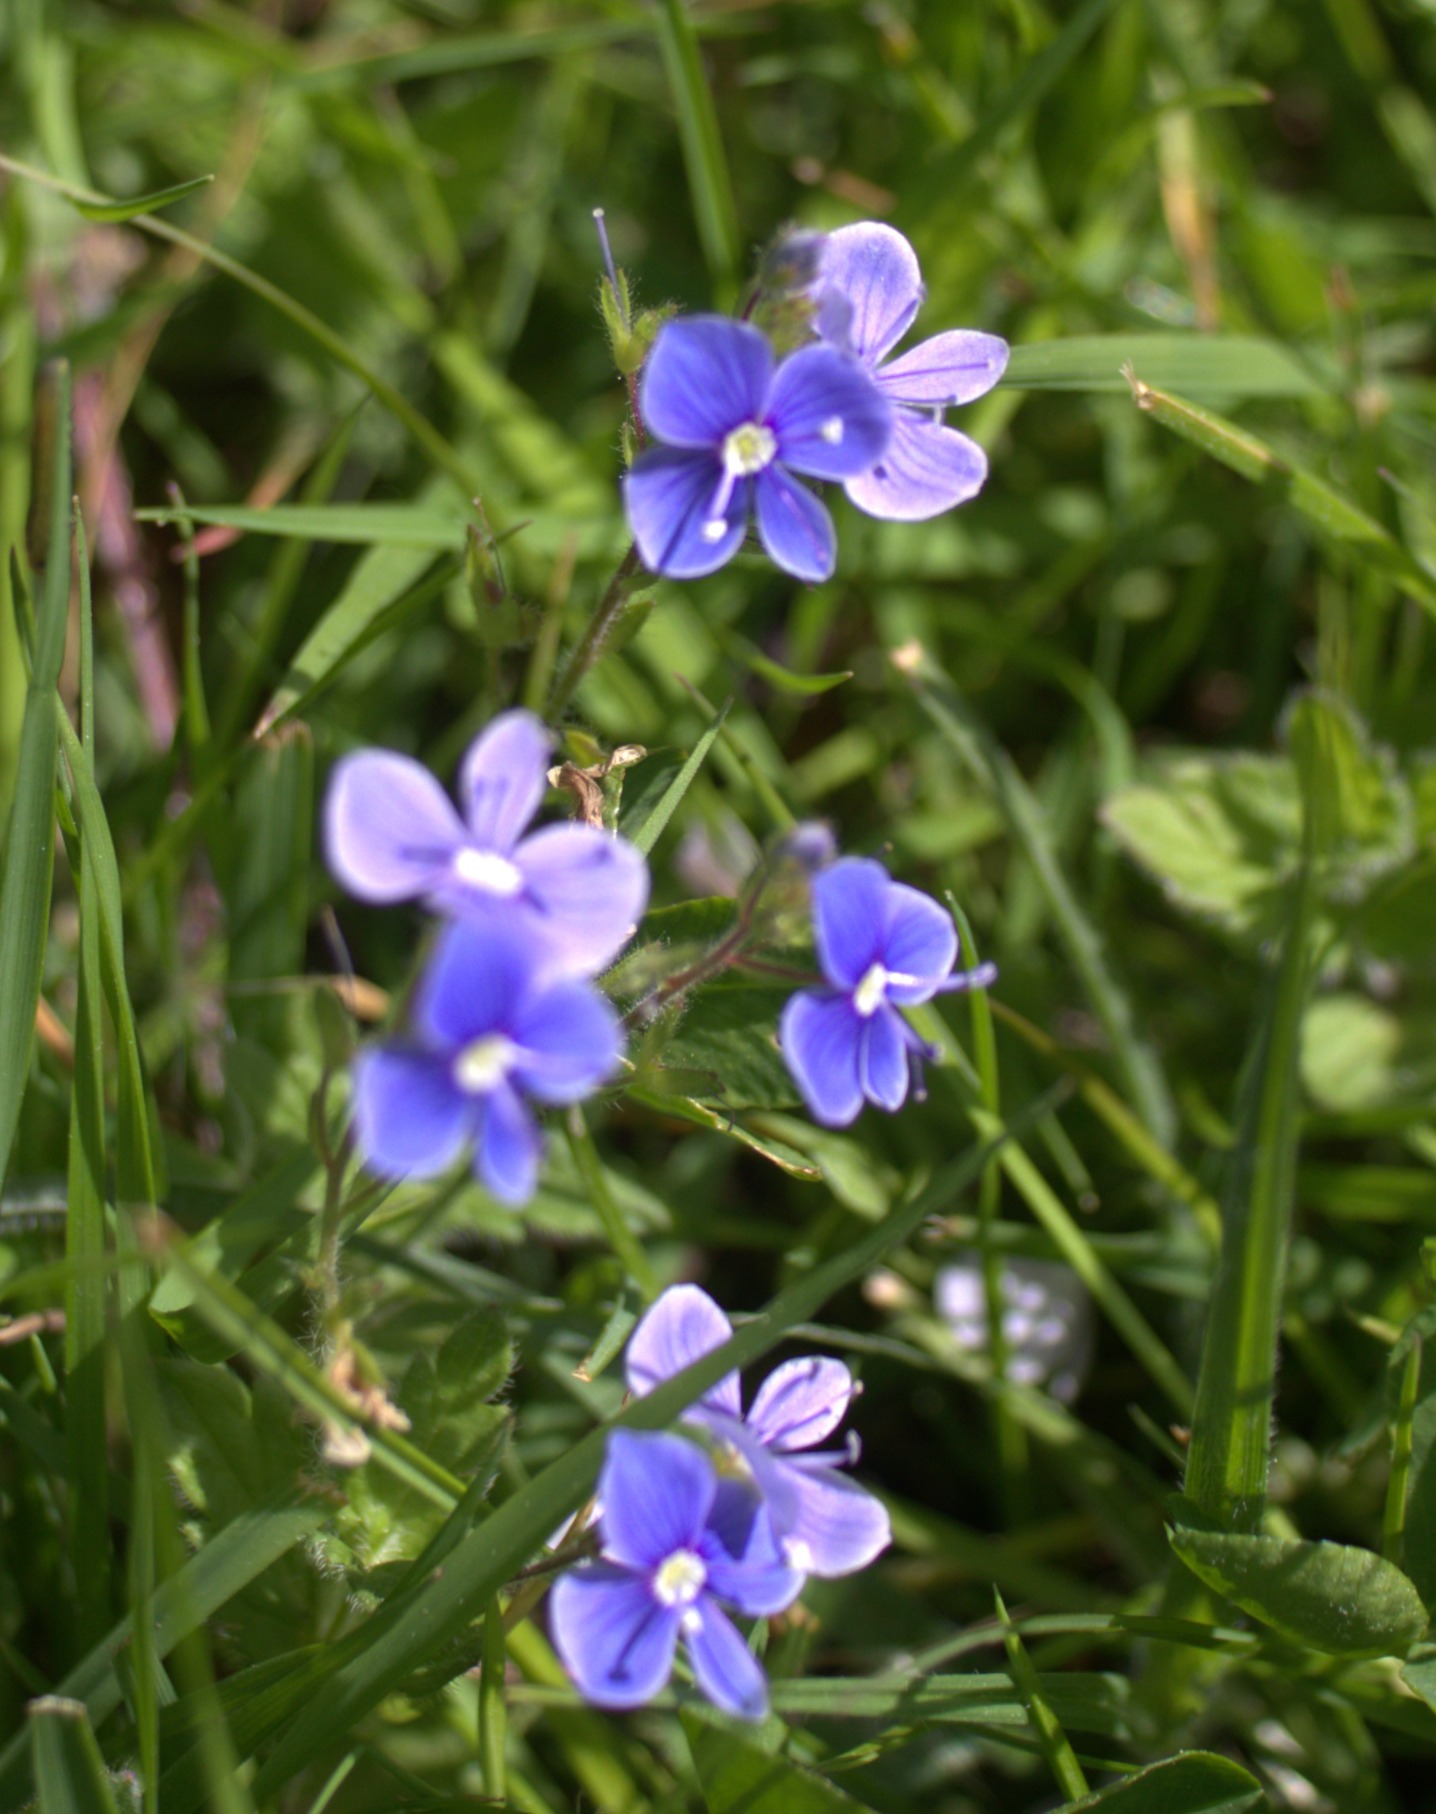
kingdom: Plantae
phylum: Tracheophyta
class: Magnoliopsida
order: Lamiales
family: Plantaginaceae
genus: Veronica
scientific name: Veronica chamaedrys
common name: Tveskægget ærenpris
